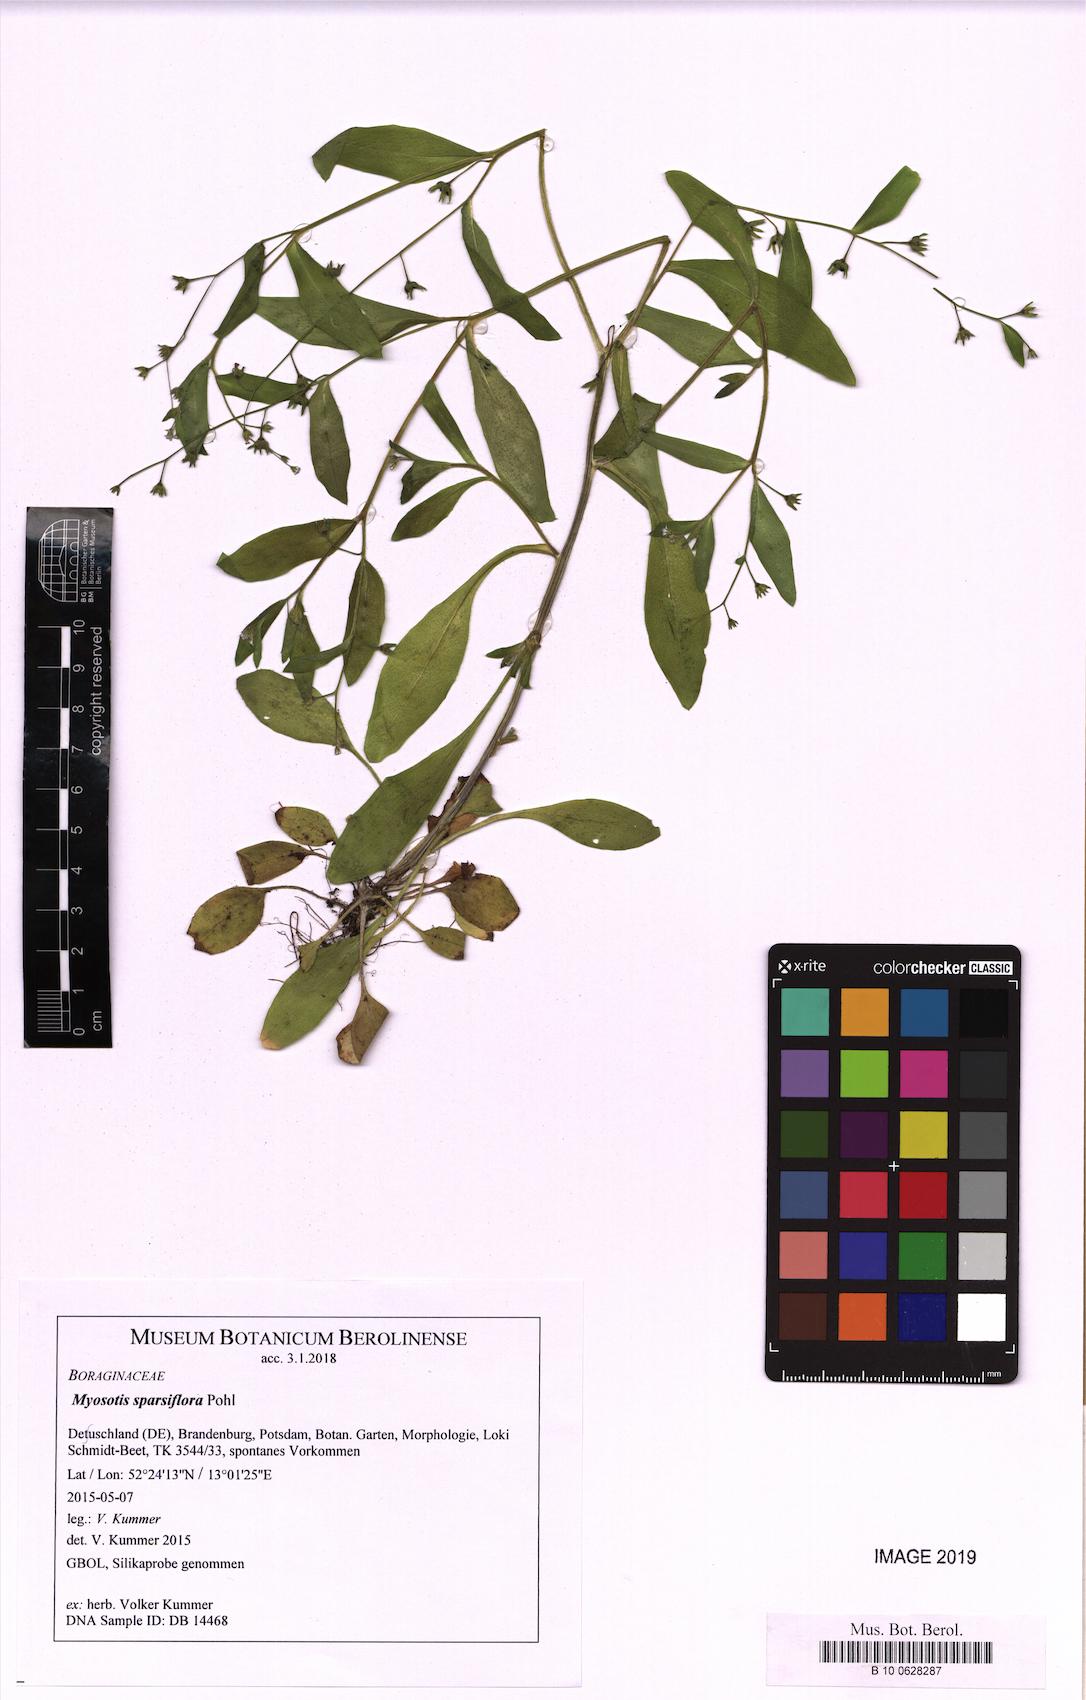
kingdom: Plantae
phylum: Tracheophyta
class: Magnoliopsida
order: Boraginales
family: Boraginaceae
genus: Myosotis
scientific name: Myosotis sparsiflora
